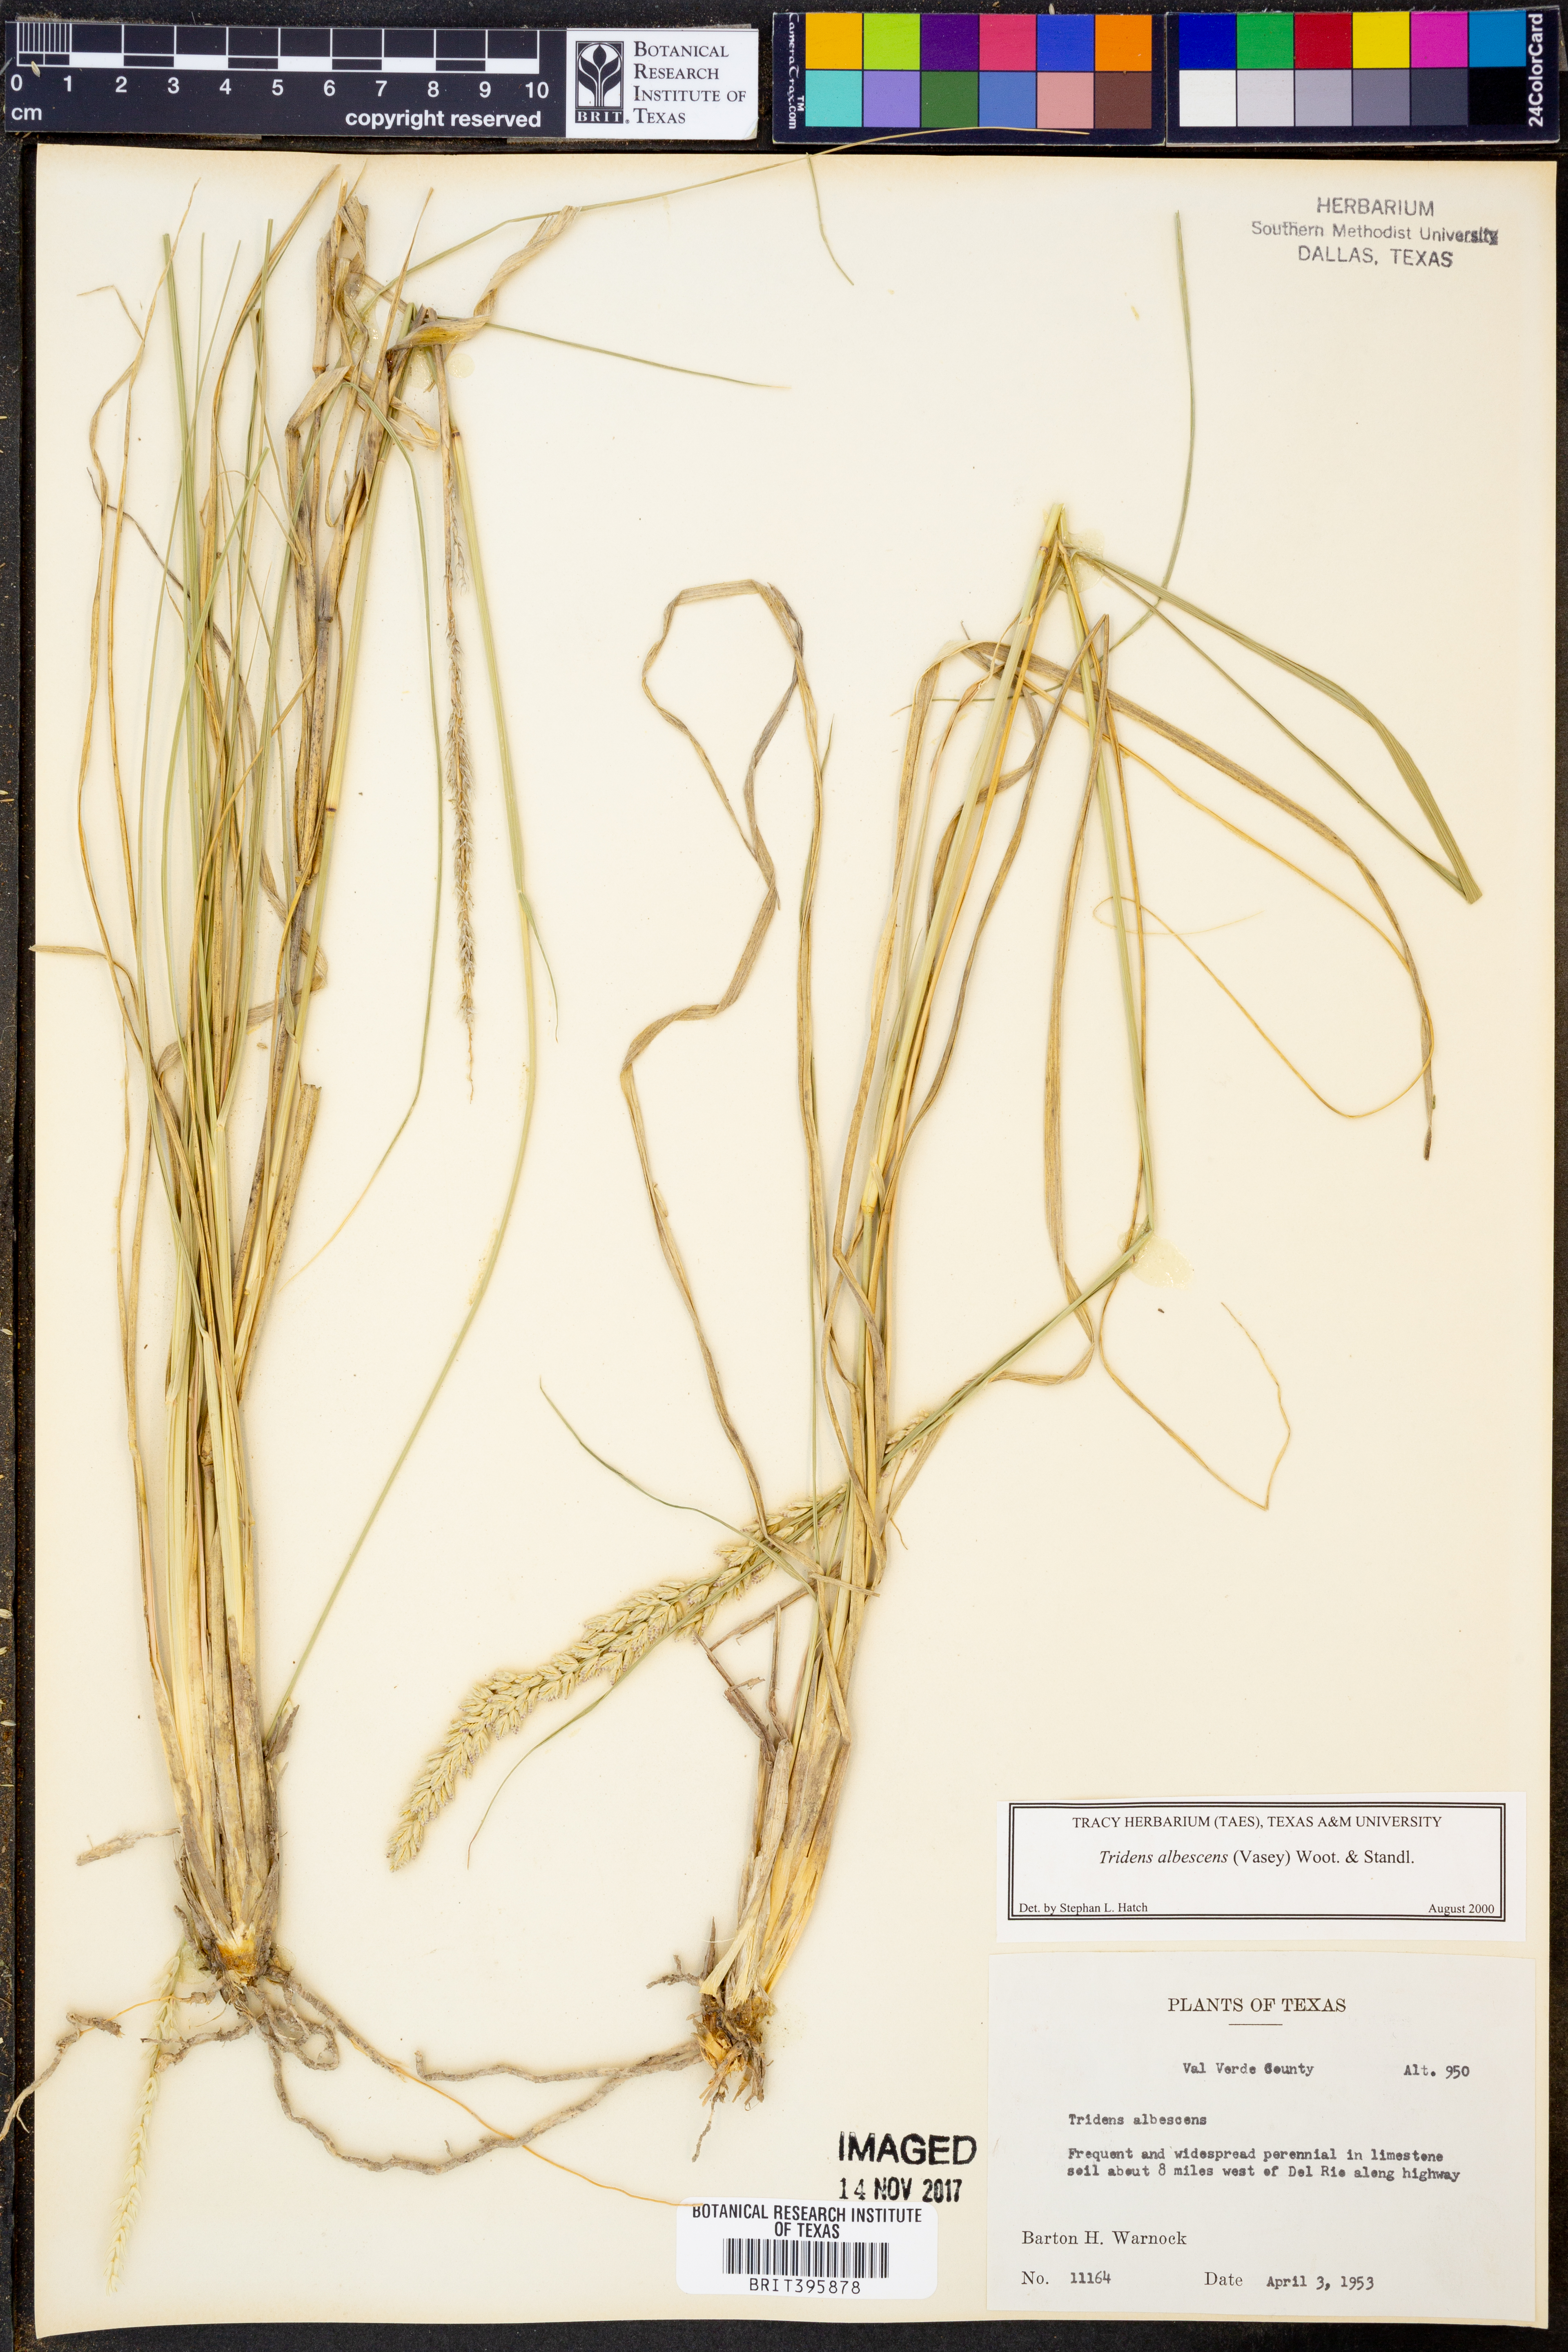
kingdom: Plantae
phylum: Tracheophyta
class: Liliopsida
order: Poales
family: Poaceae
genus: Tridens
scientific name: Tridens albescens
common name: White tridens
